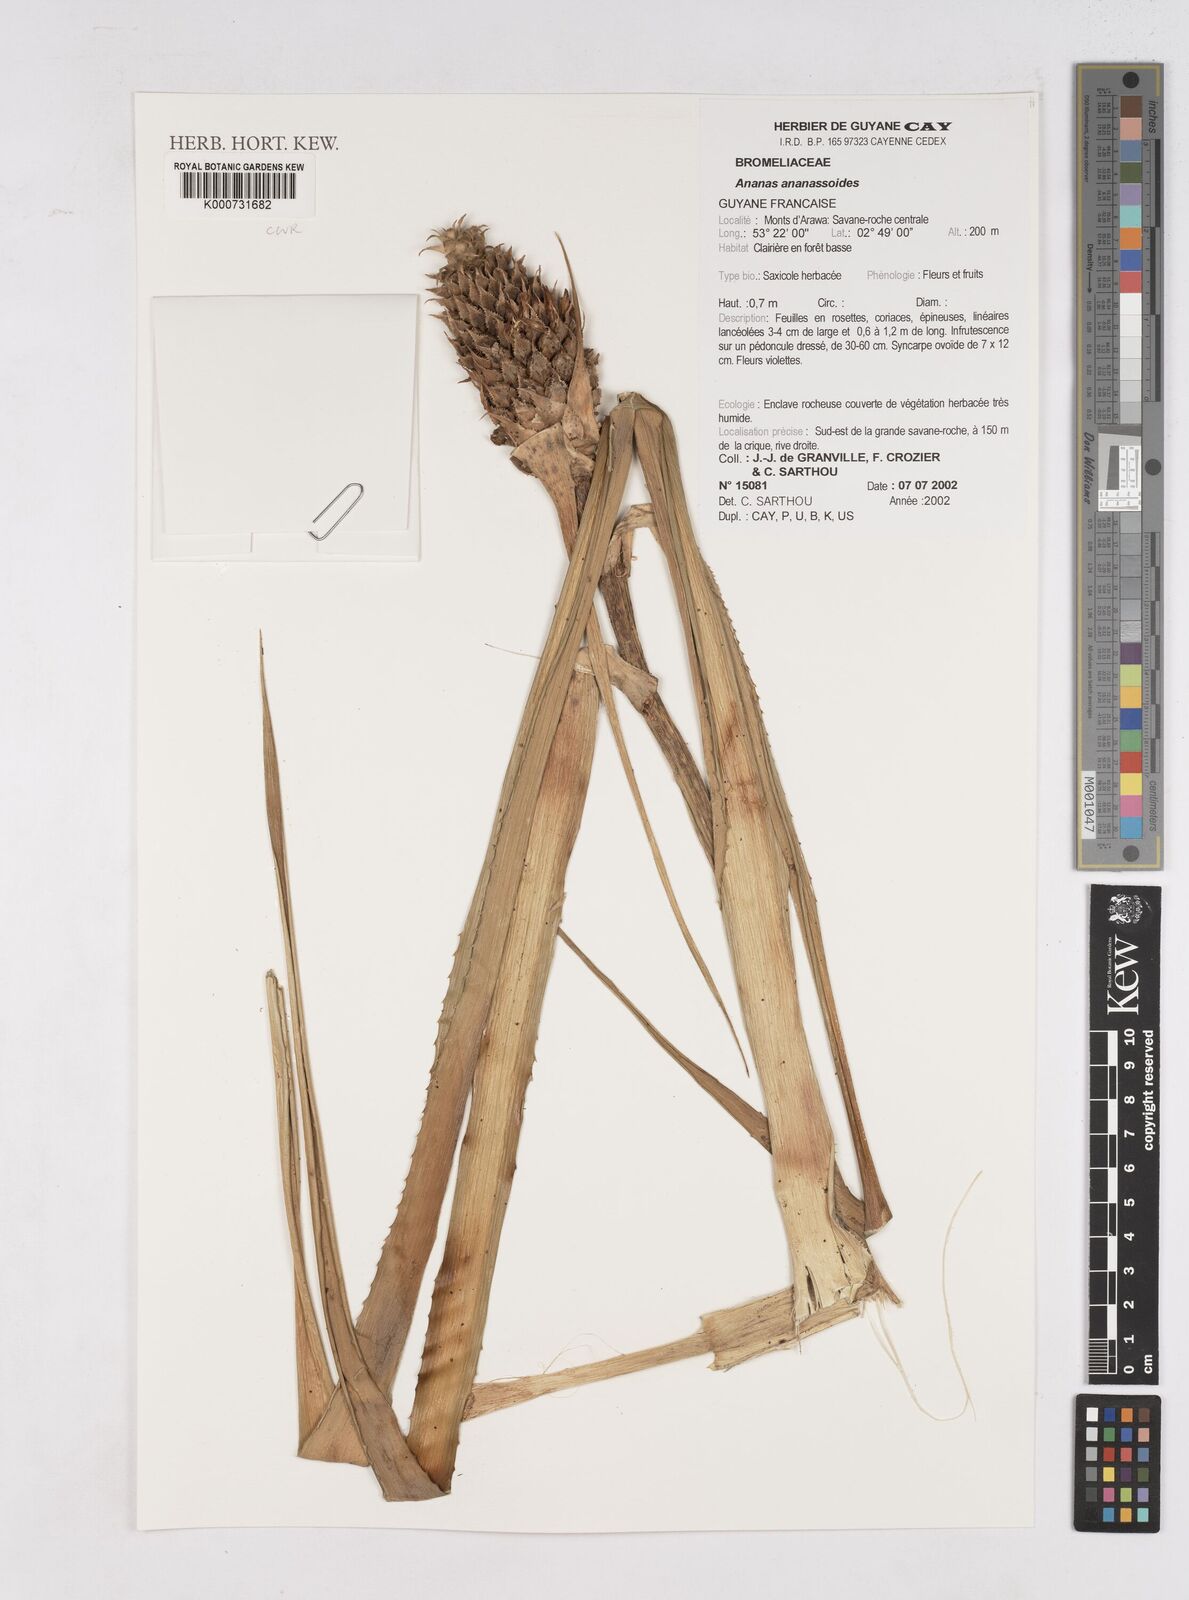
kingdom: Plantae
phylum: Tracheophyta
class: Liliopsida
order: Poales
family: Bromeliaceae
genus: Ananas
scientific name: Ananas comosus
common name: Pineapple
